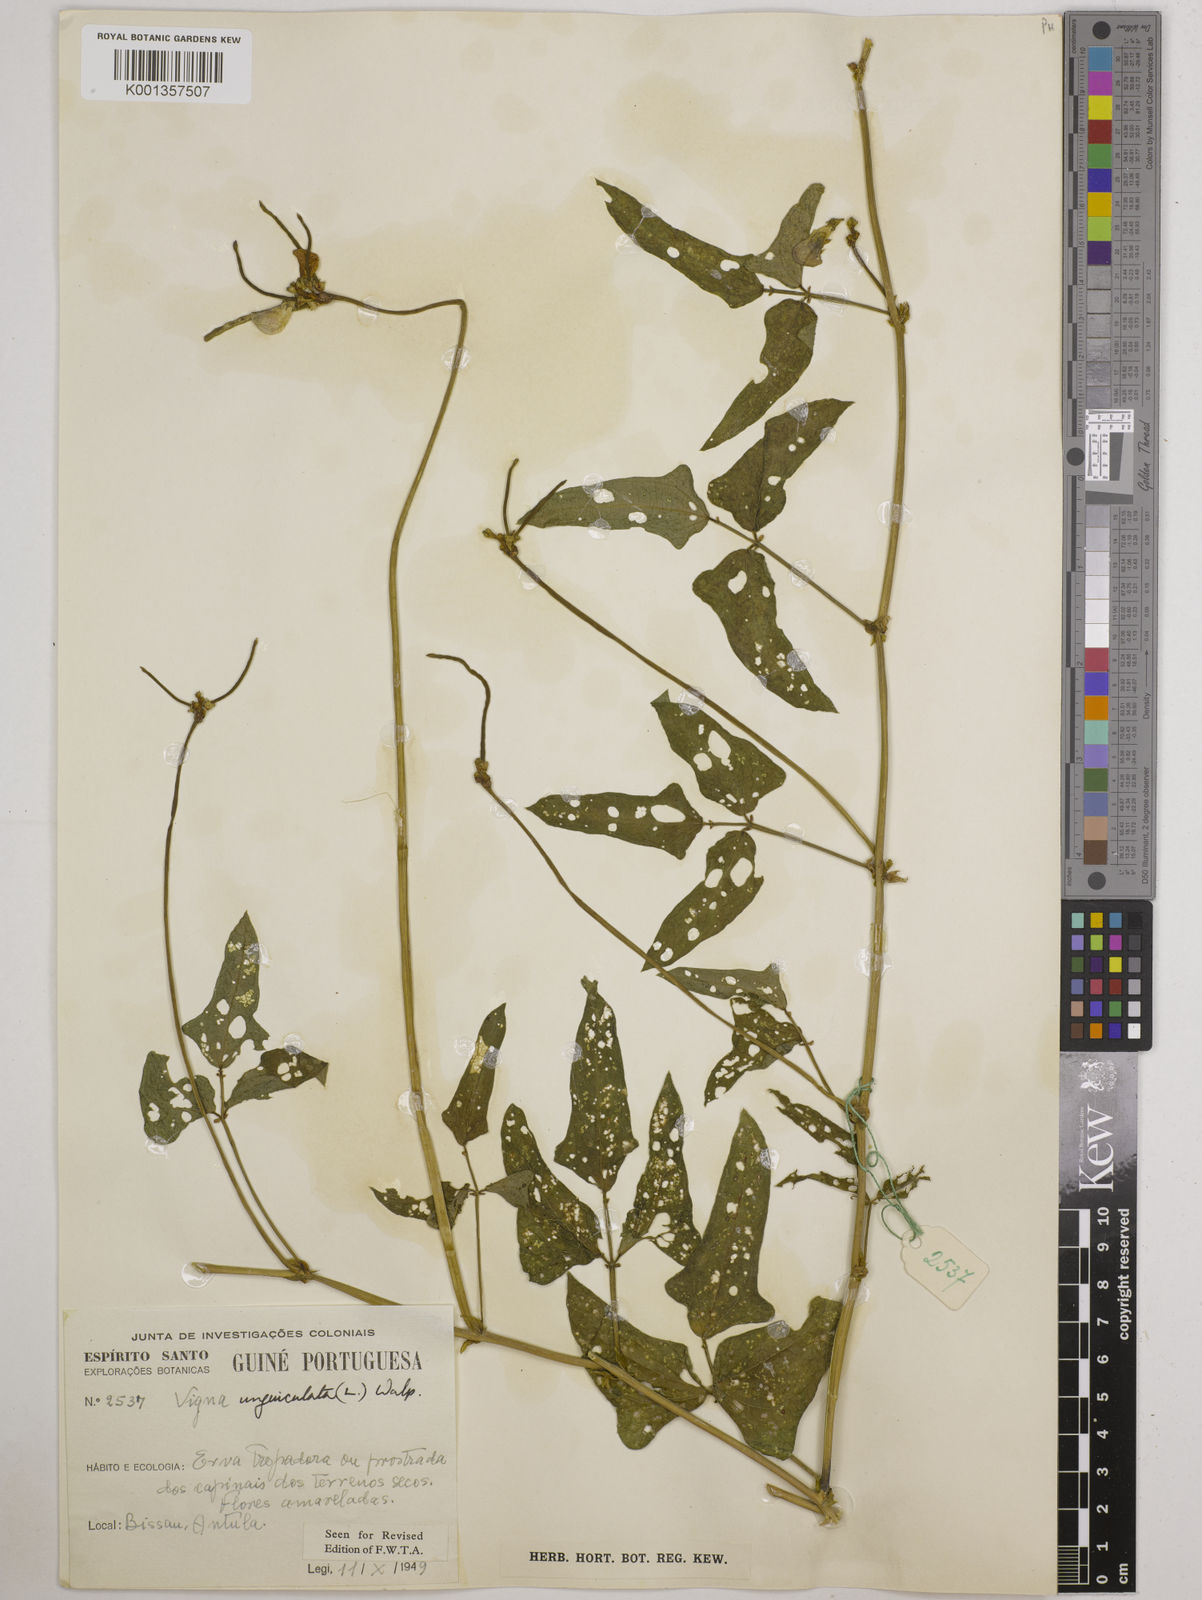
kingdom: Plantae
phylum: Tracheophyta
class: Magnoliopsida
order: Fabales
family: Fabaceae
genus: Vigna
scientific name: Vigna
